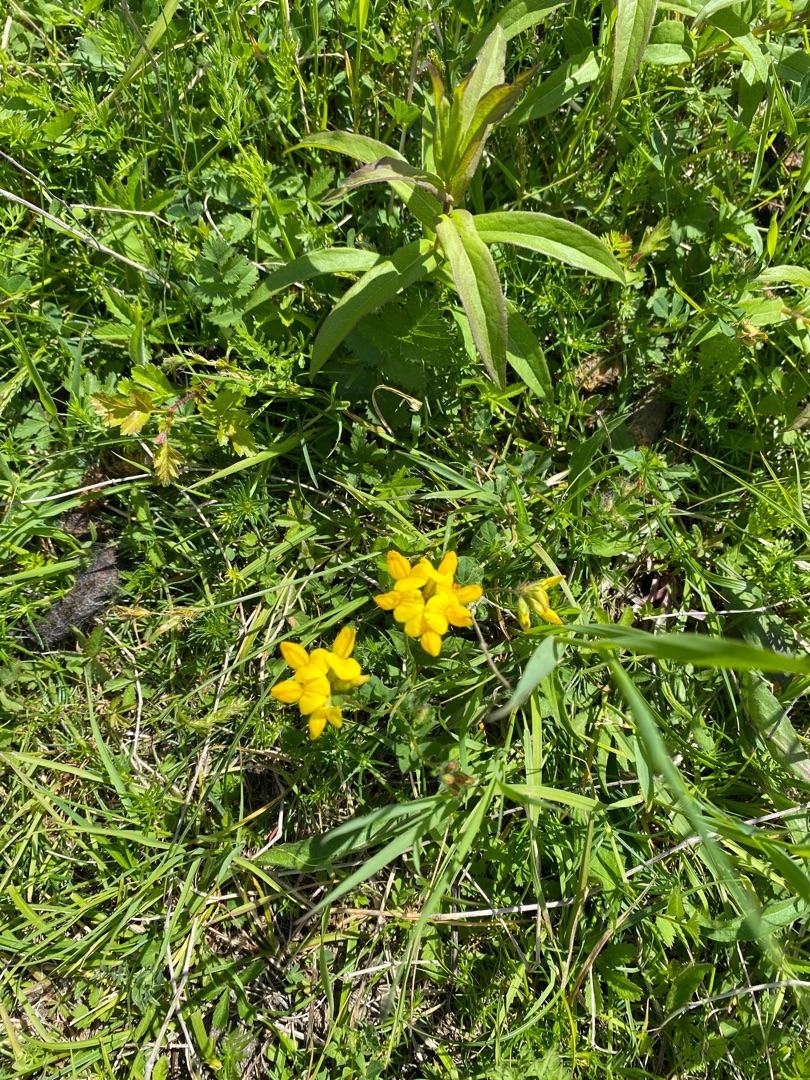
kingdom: Plantae
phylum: Tracheophyta
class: Magnoliopsida
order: Fabales
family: Fabaceae
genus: Lotus
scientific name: Lotus corniculatus
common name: Almindelig kællingetand
